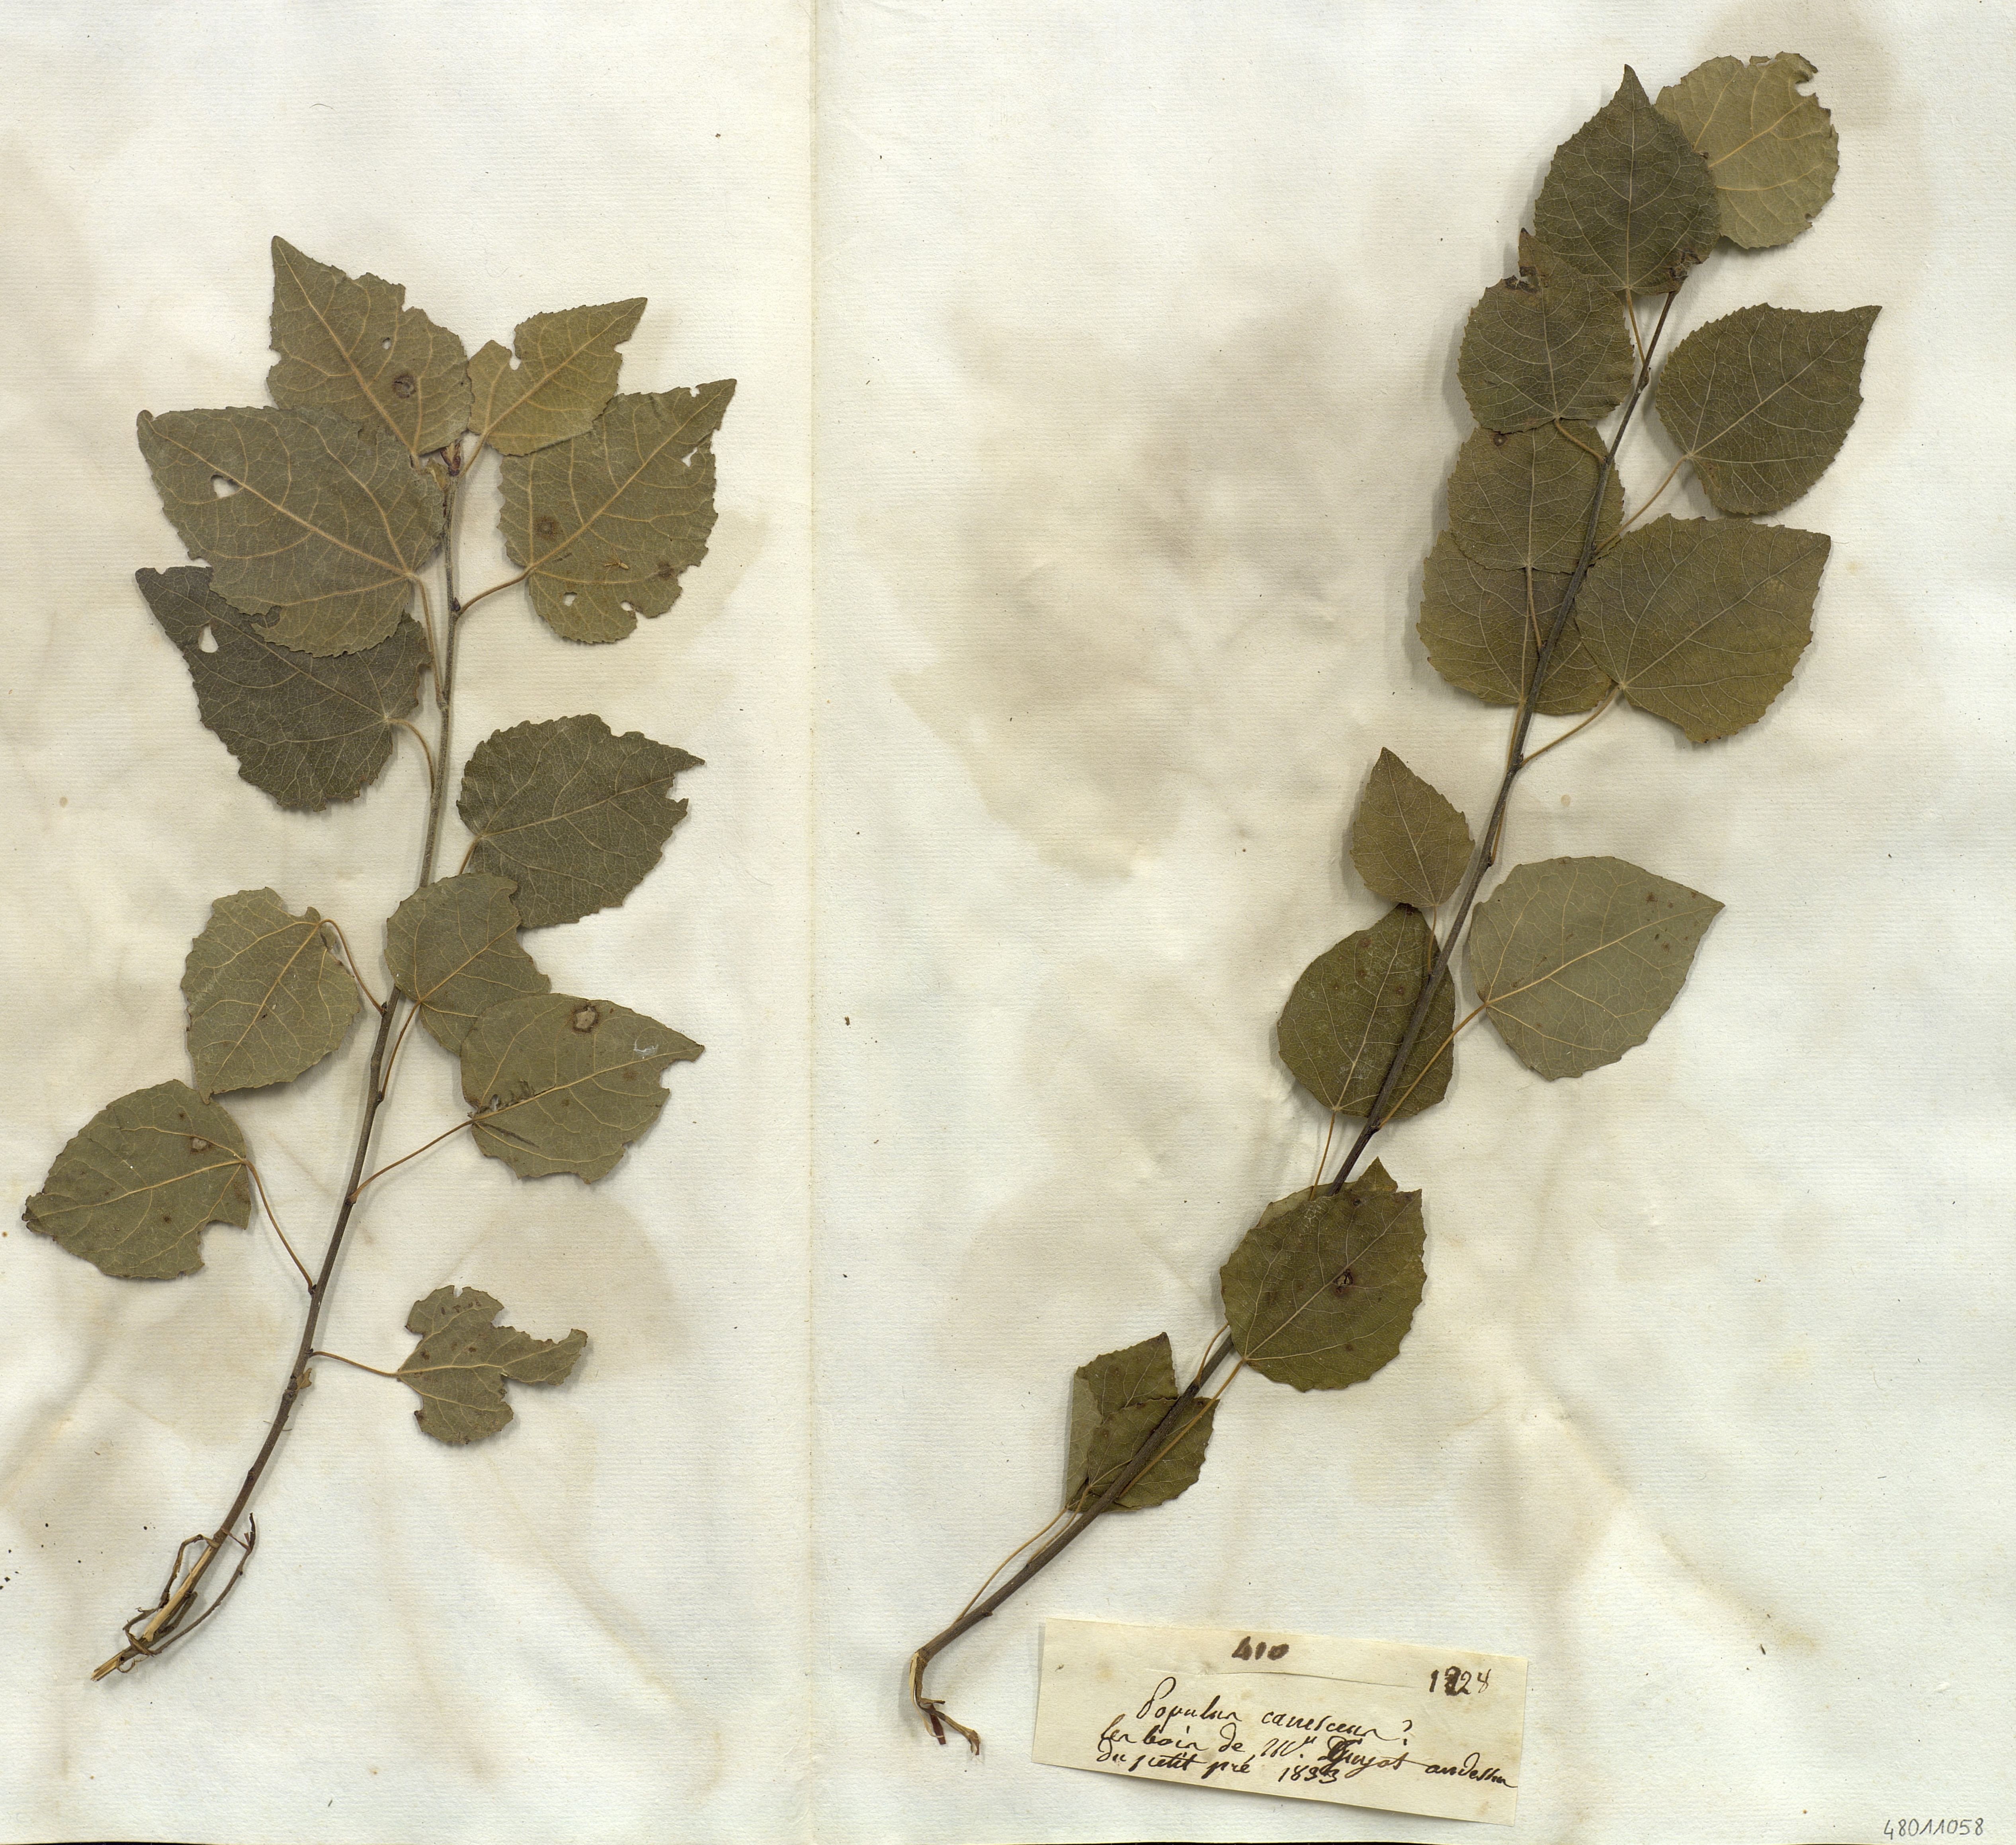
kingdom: Plantae
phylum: Tracheophyta
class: Magnoliopsida
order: Malpighiales
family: Salicaceae
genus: Populus
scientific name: Populus canescens
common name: Gray poplar
